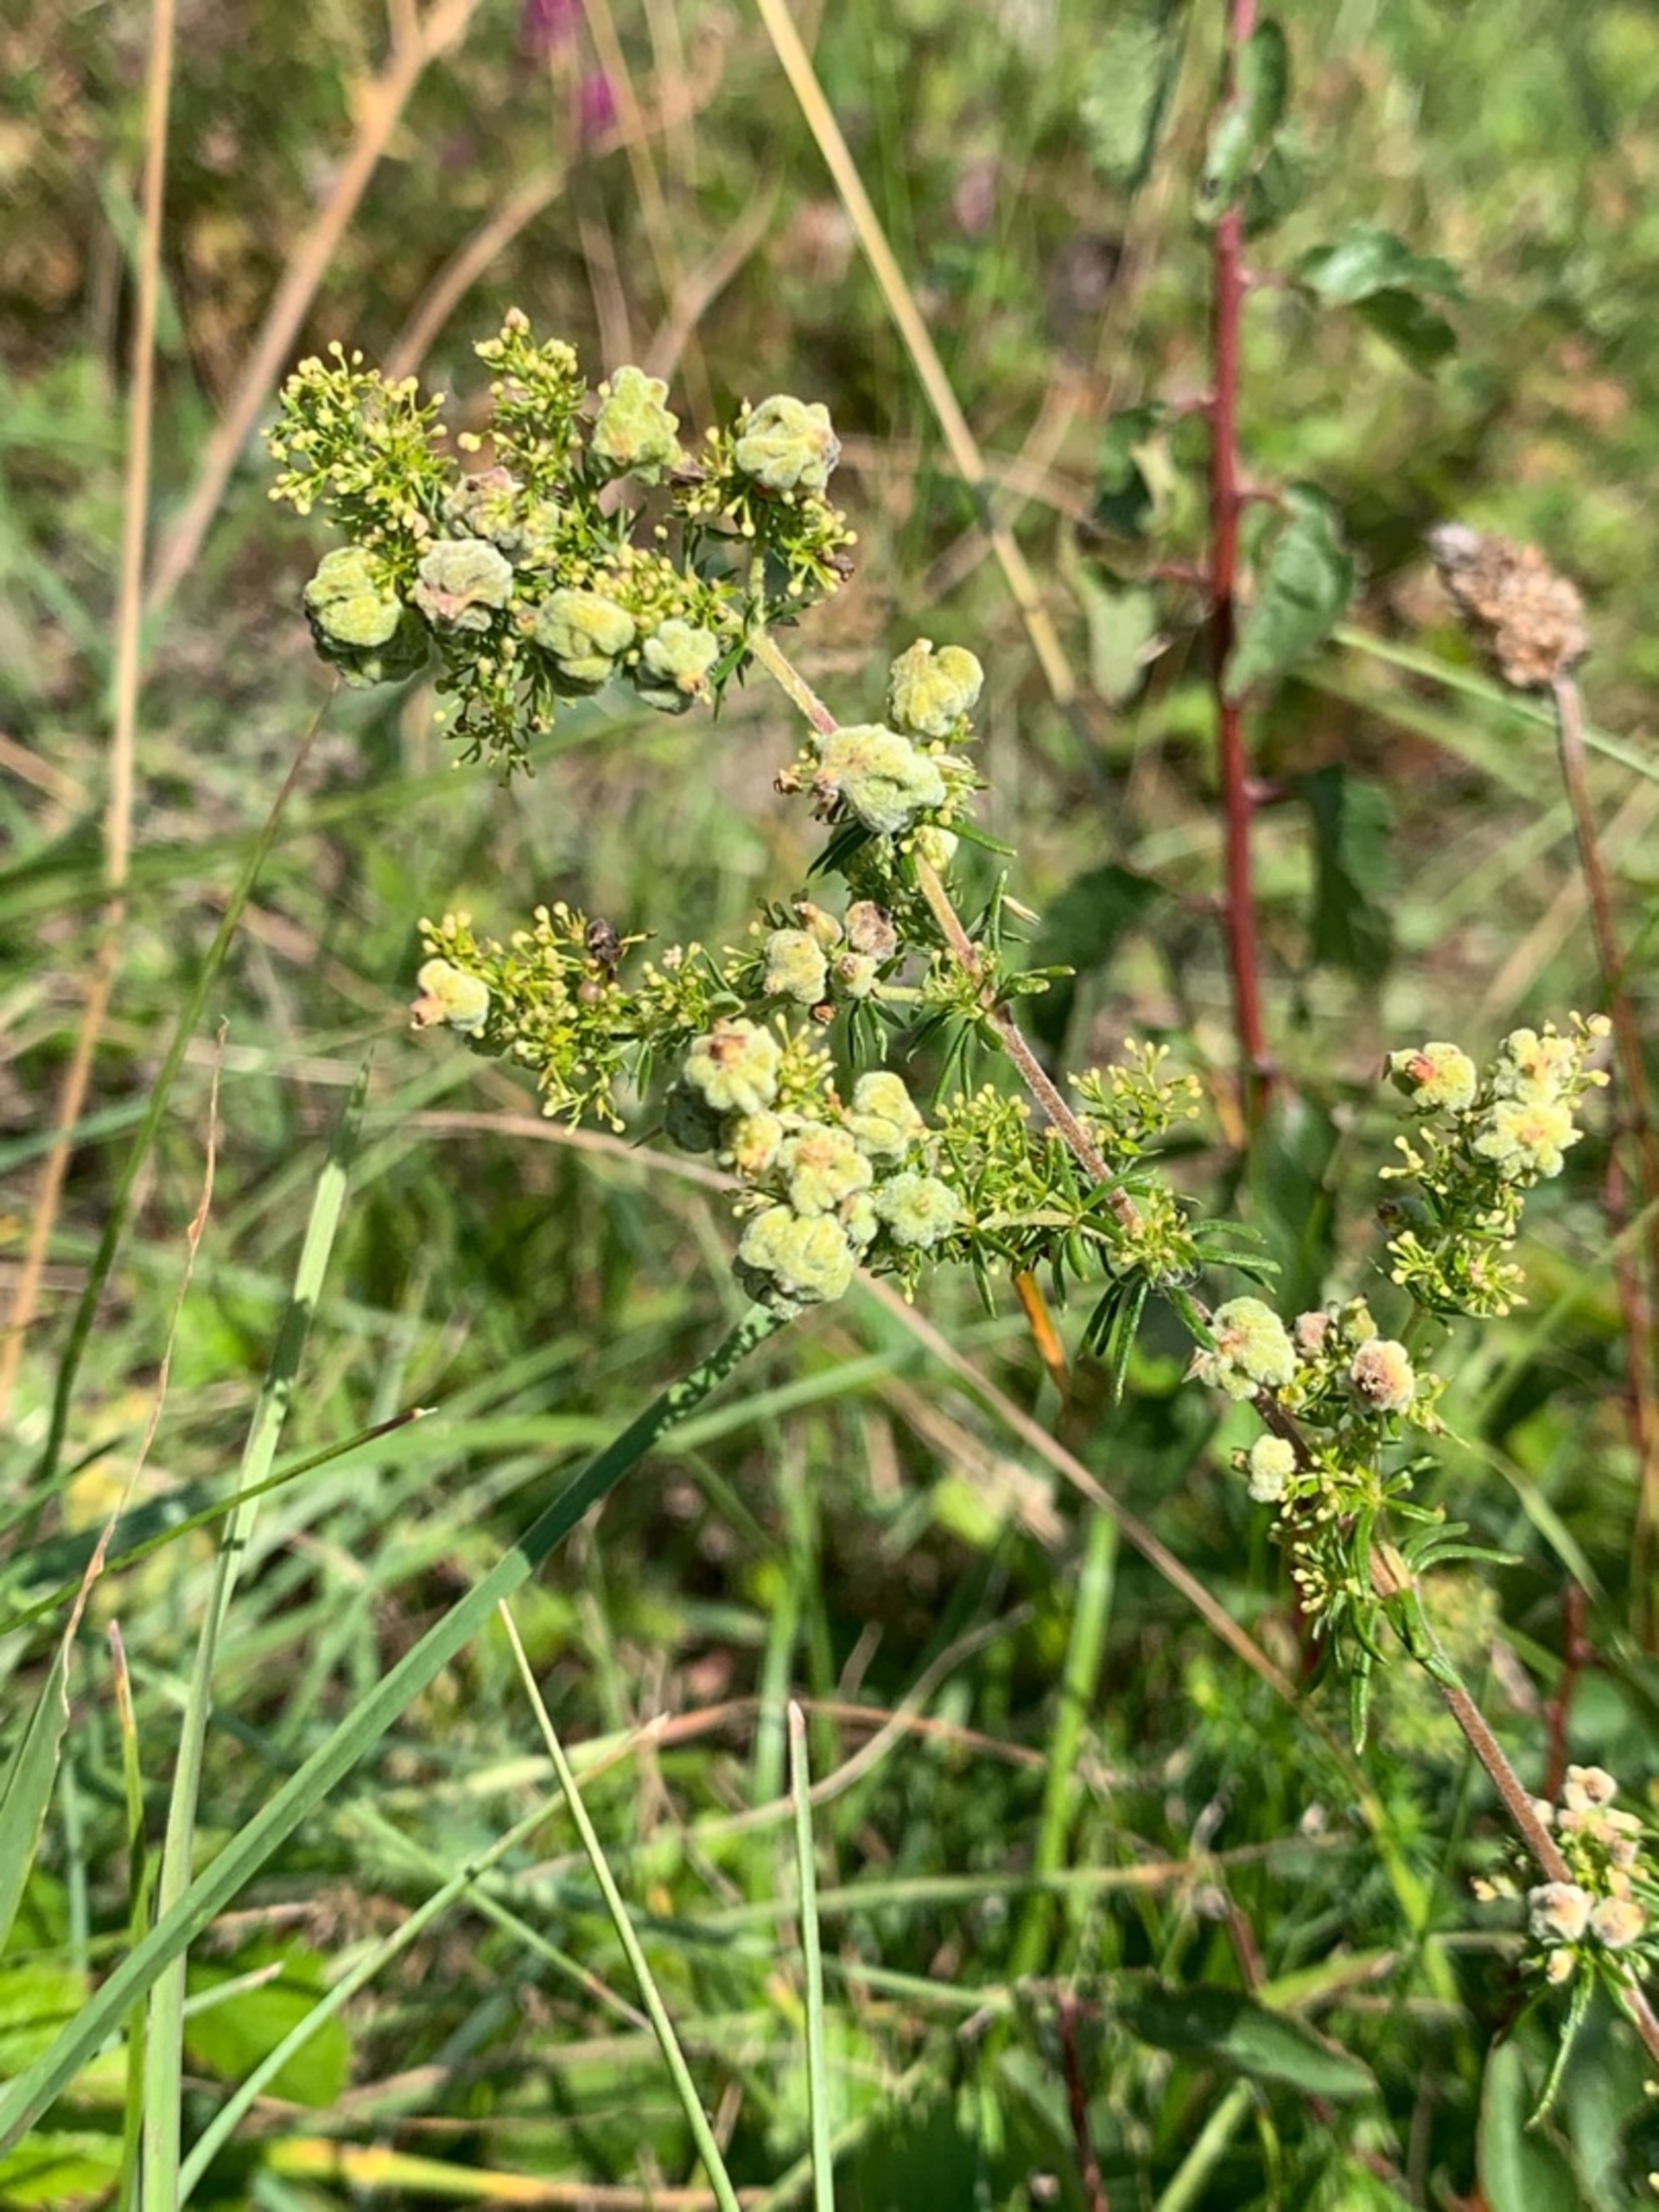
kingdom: Animalia
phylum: Arthropoda
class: Arachnida
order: Trombidiformes
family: Eriophyidae
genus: Aceria
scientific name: Aceria galiobia
